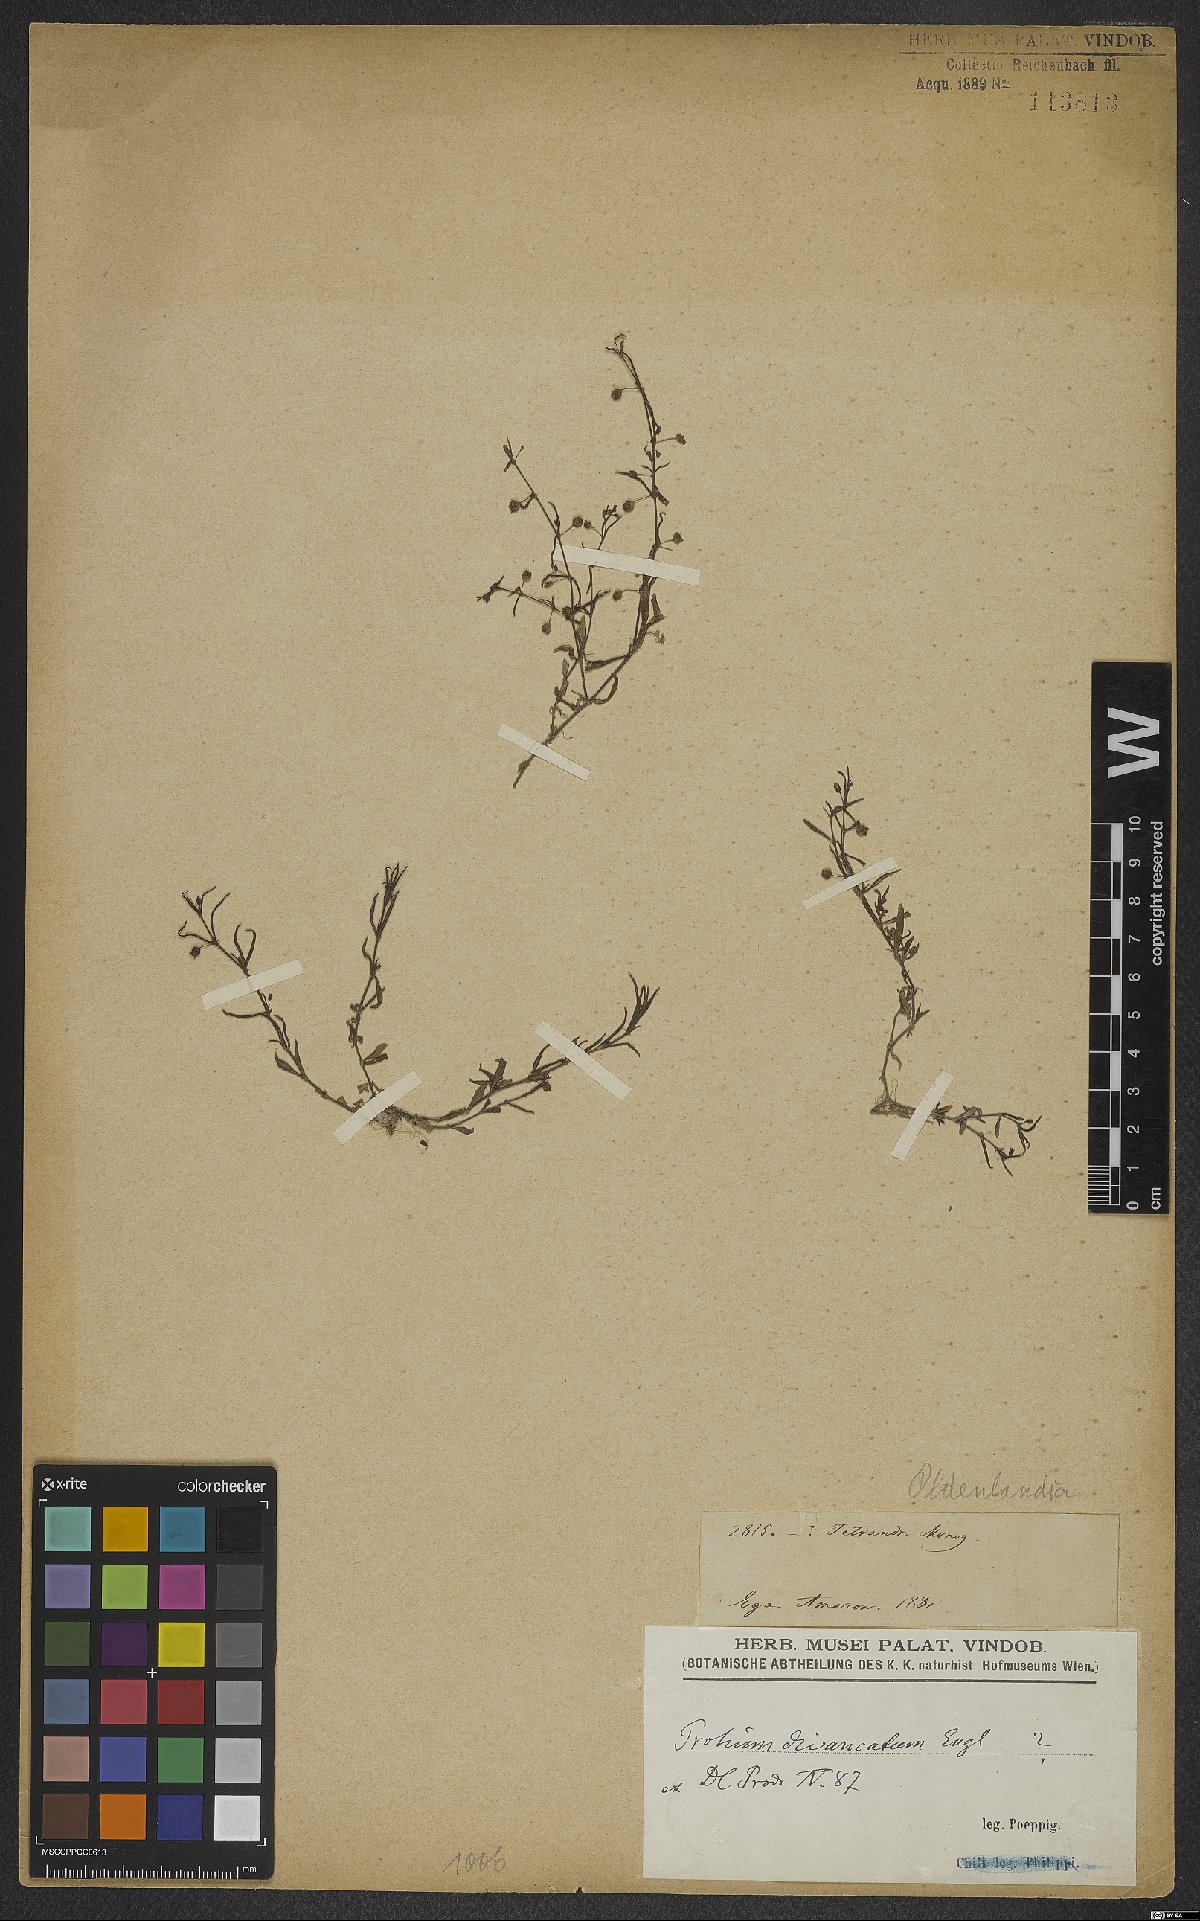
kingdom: Plantae
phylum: Tracheophyta
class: Magnoliopsida
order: Gentianales
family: Rubiaceae
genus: Oldenlandia
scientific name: Oldenlandia
